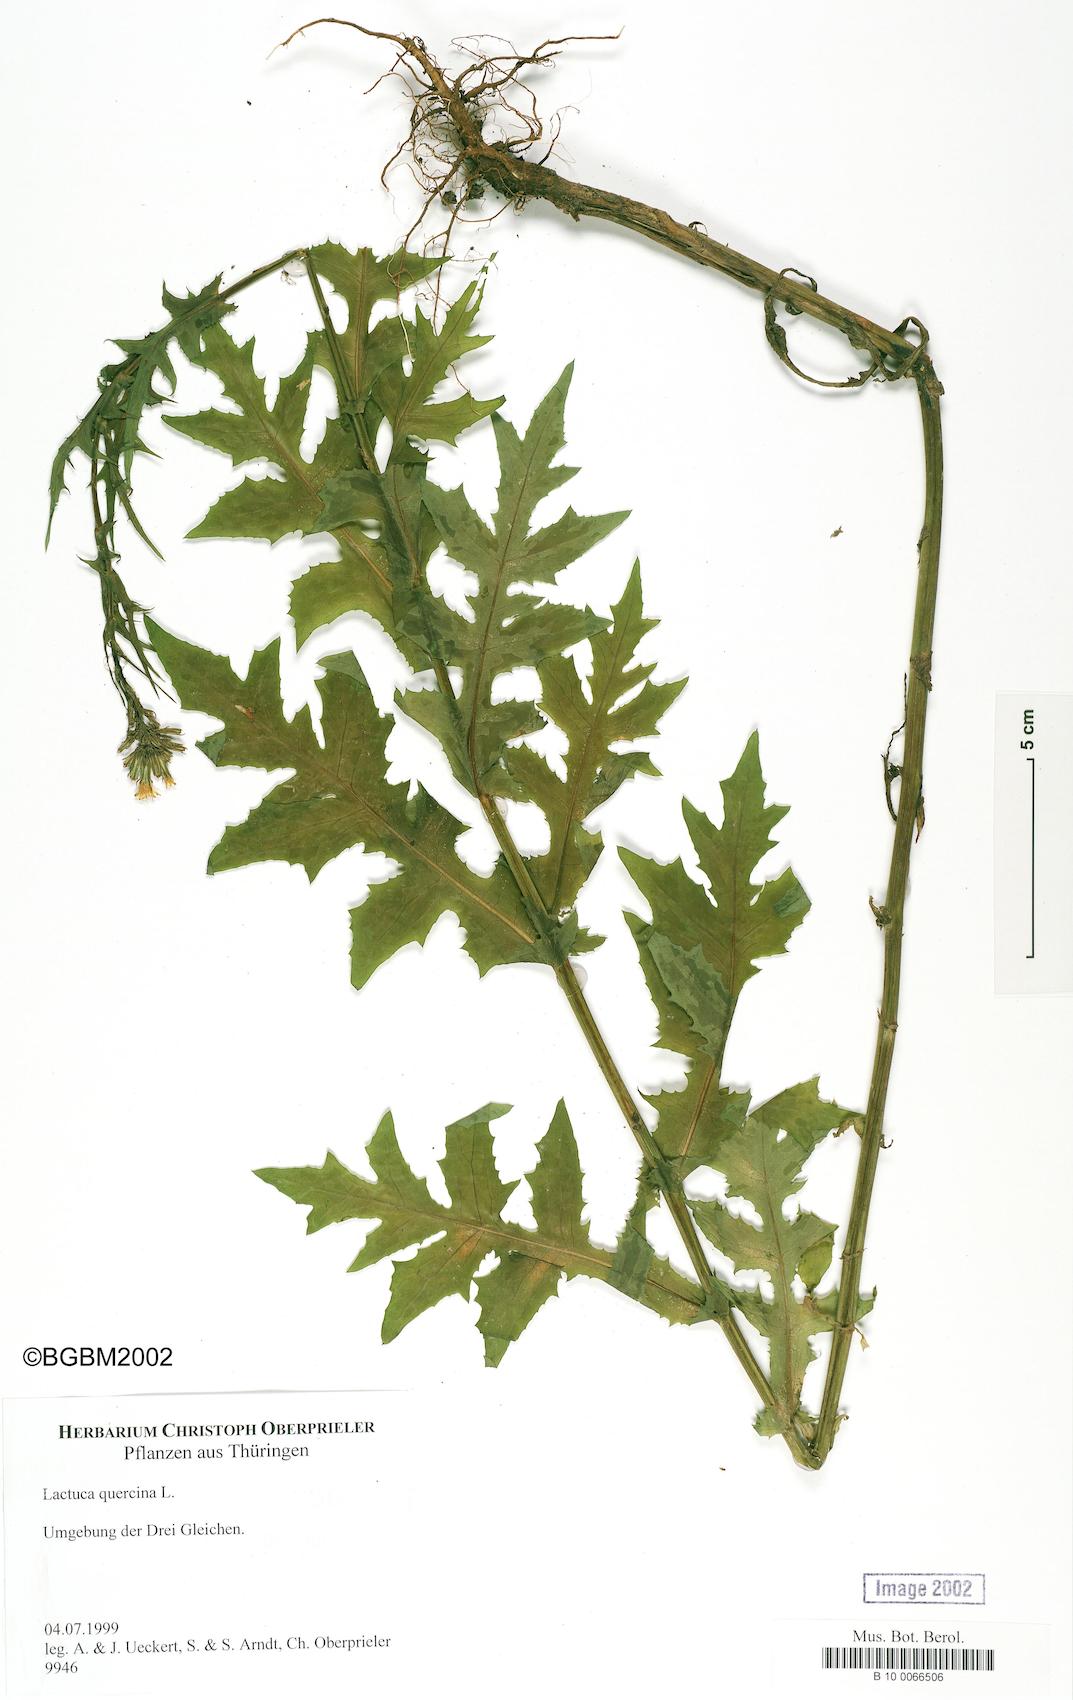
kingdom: Plantae
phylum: Tracheophyta
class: Magnoliopsida
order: Asterales
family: Asteraceae
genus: Lactuca
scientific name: Lactuca quercina
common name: Wild lettuce
